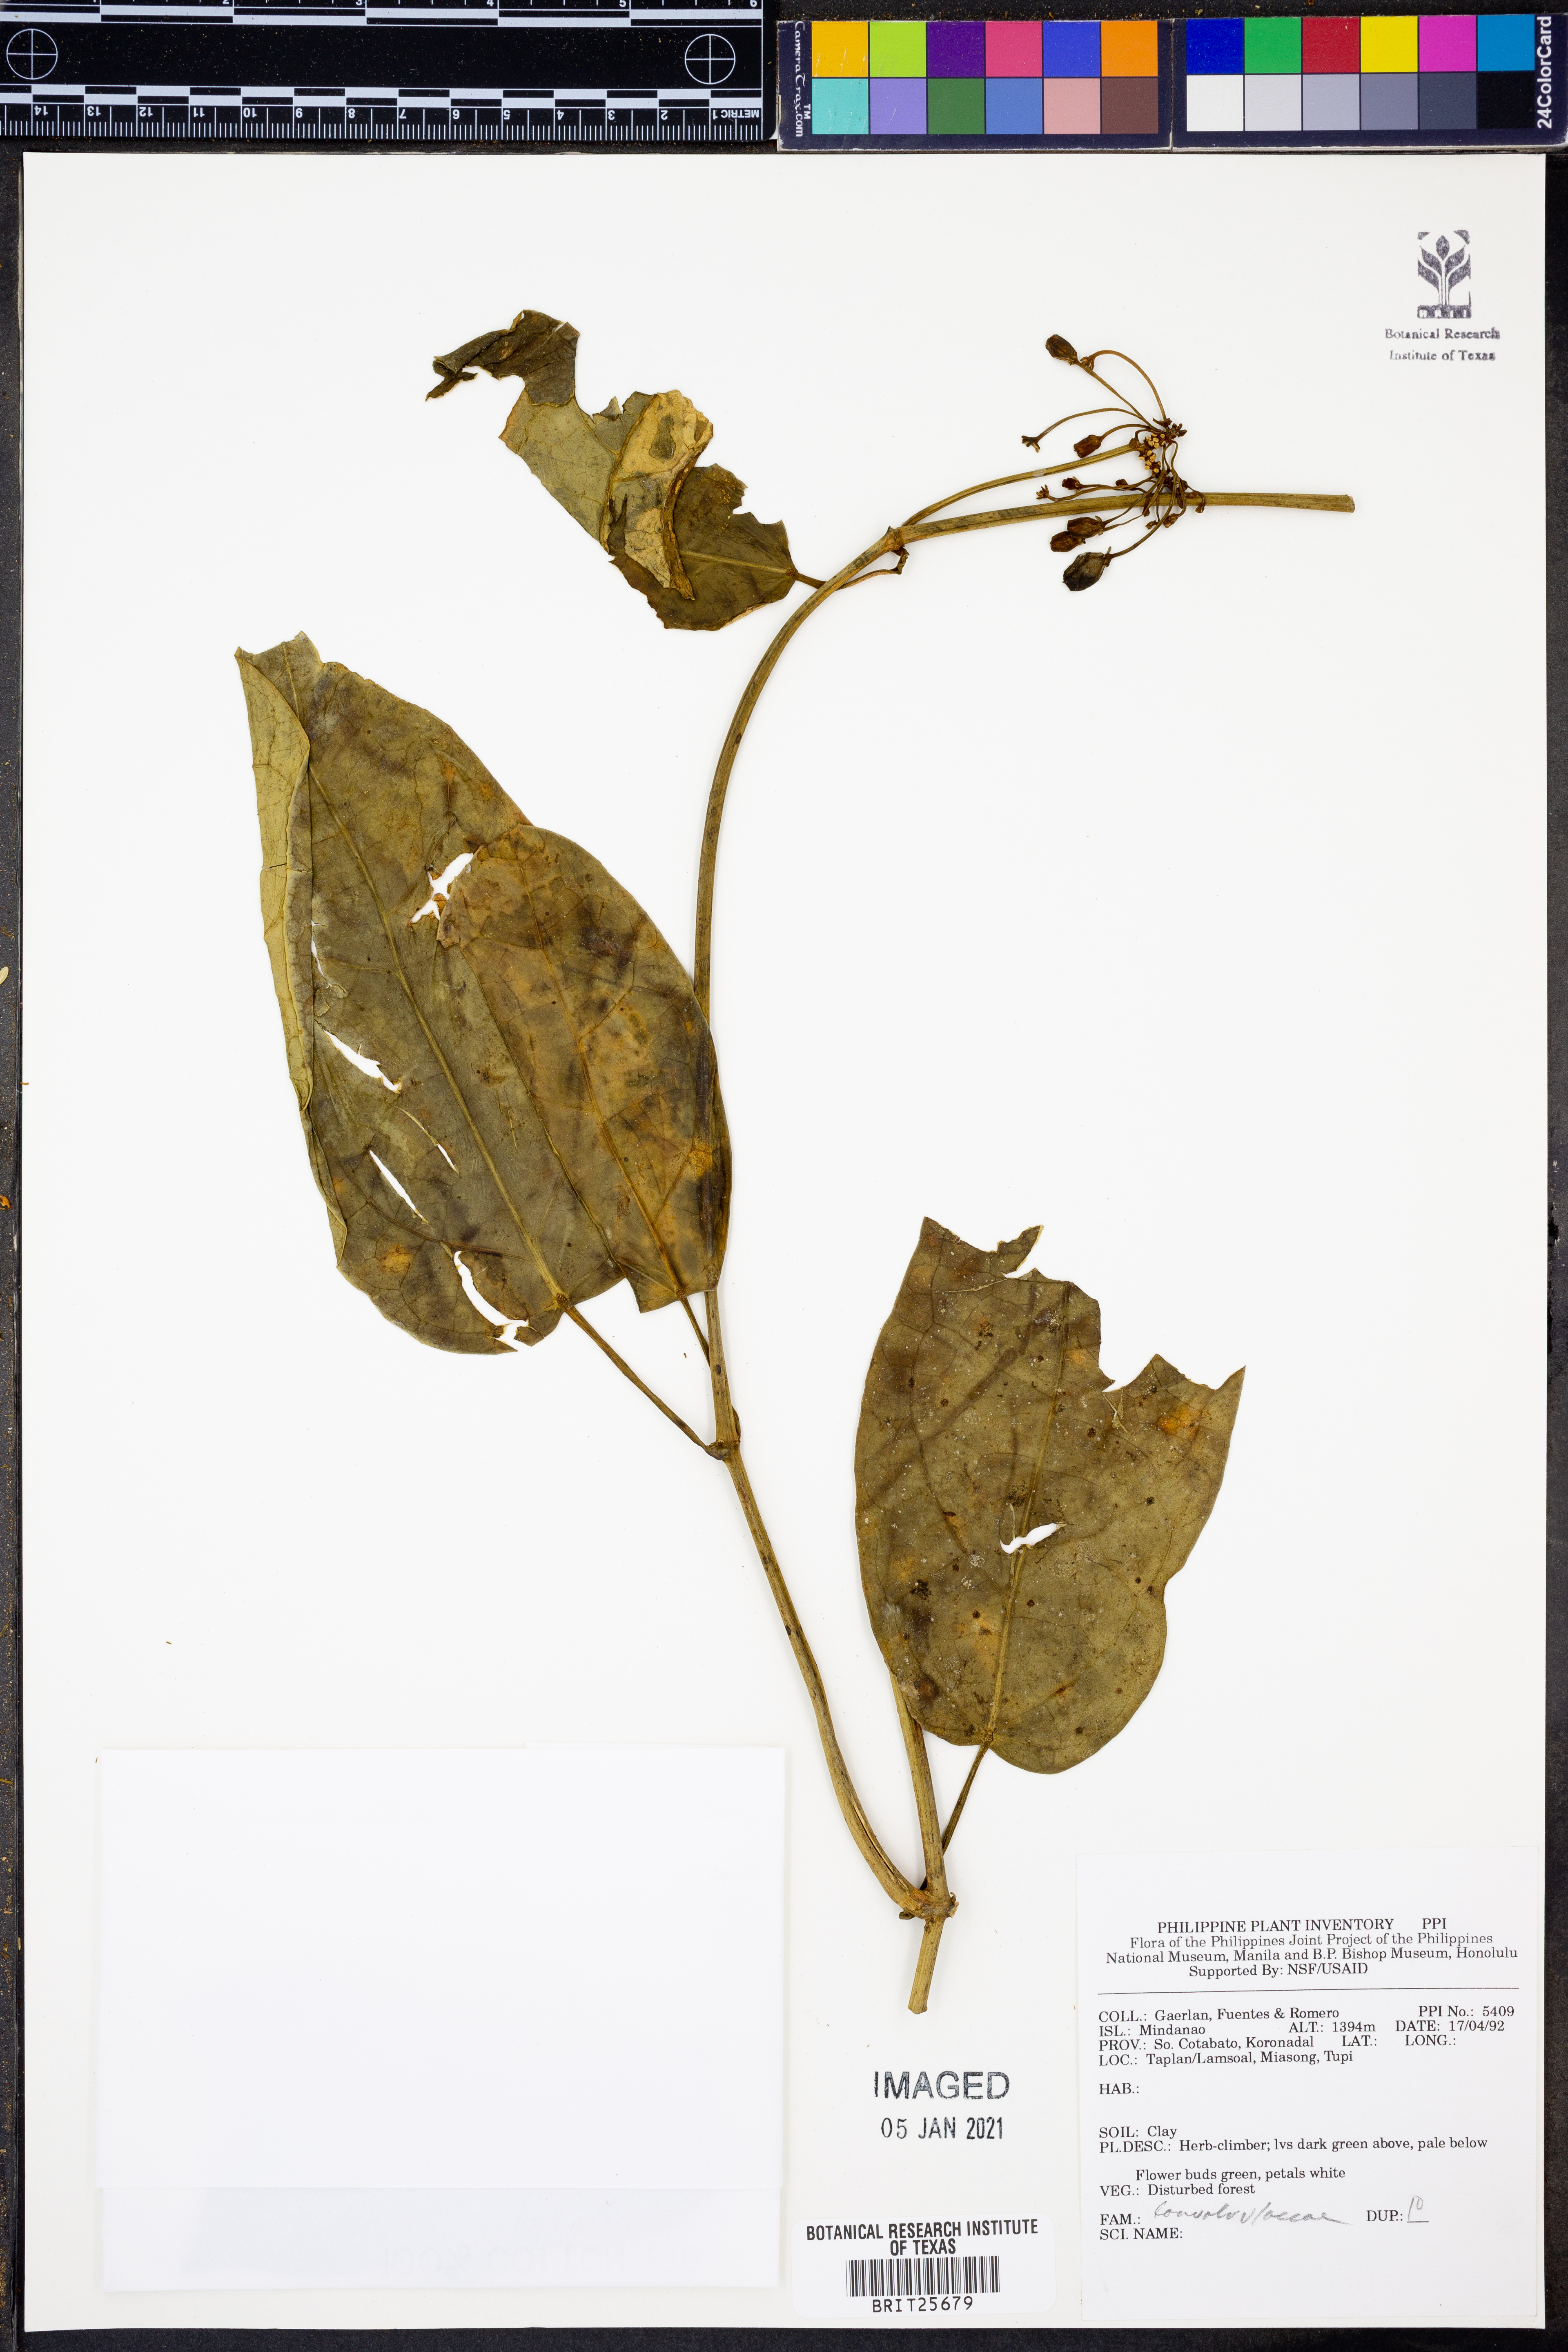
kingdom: Plantae
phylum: Tracheophyta
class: Magnoliopsida
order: Solanales
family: Convolvulaceae
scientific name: Convolvulaceae
